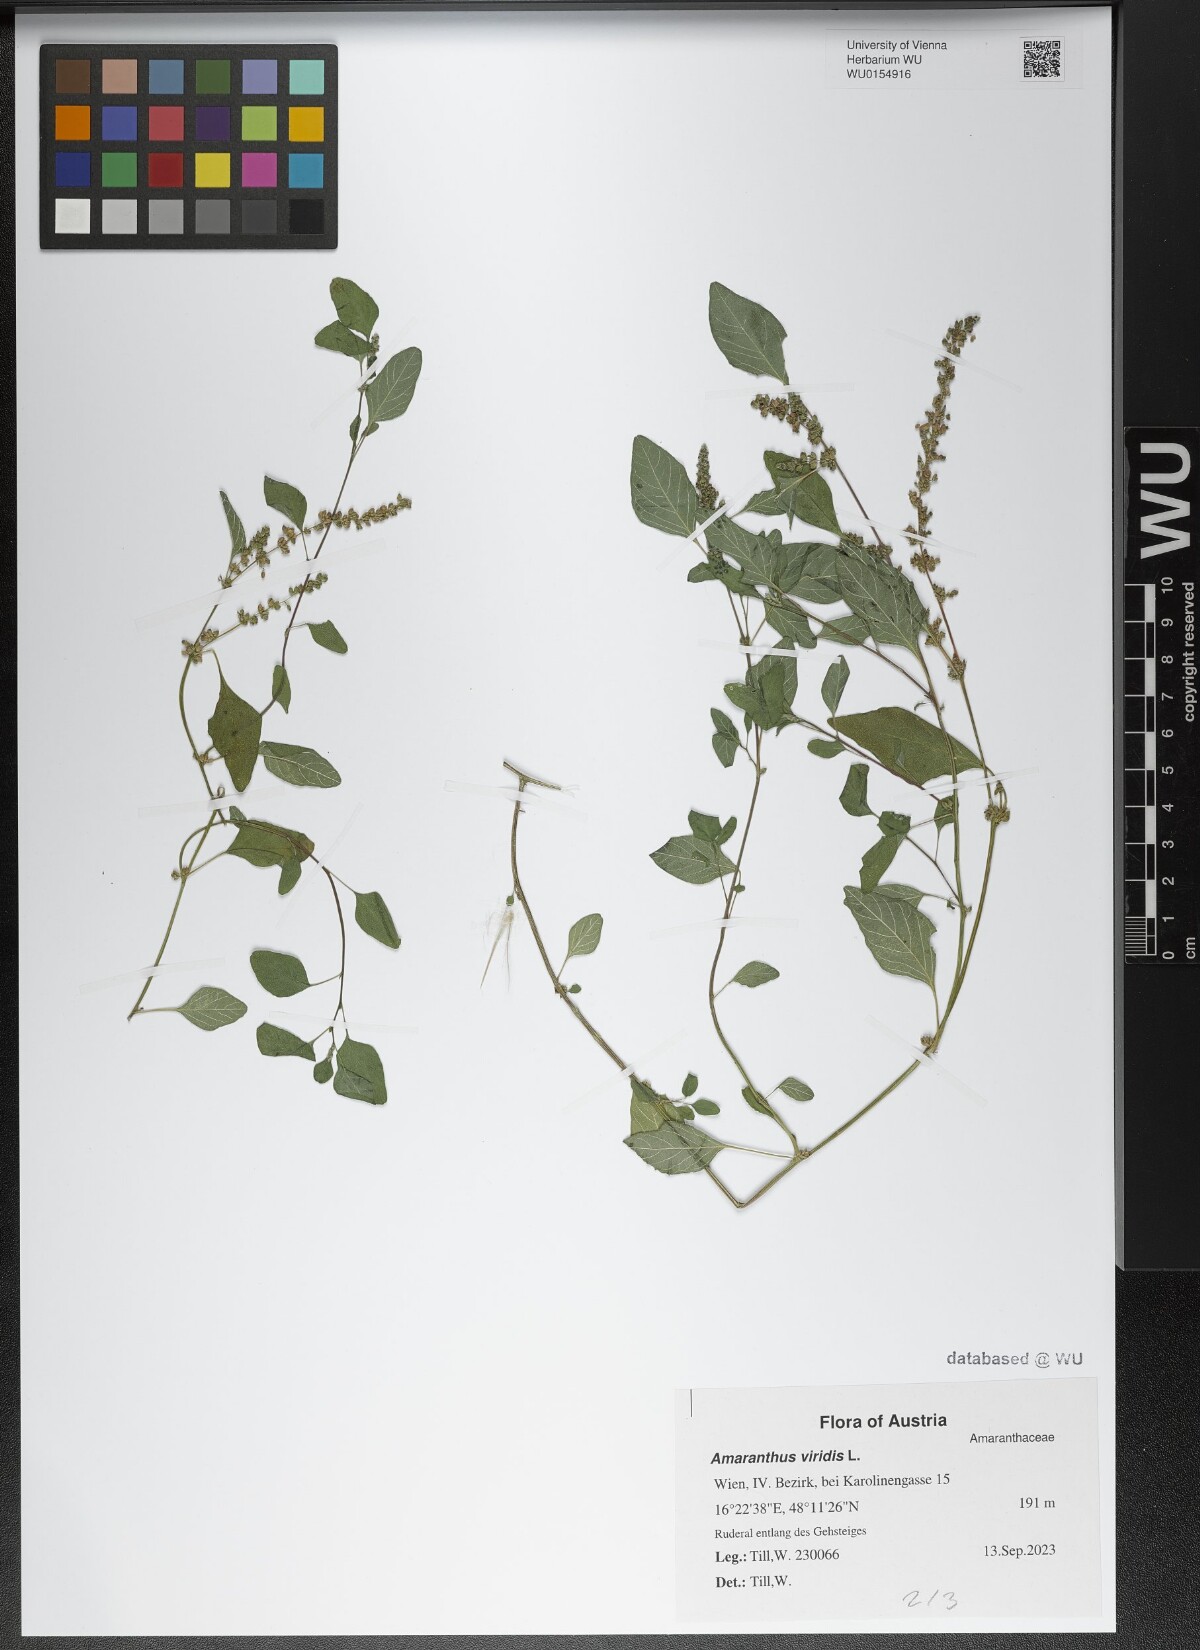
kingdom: Plantae
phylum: Tracheophyta
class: Magnoliopsida
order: Caryophyllales
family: Amaranthaceae
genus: Amaranthus
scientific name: Amaranthus viridis
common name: Slender amaranth
